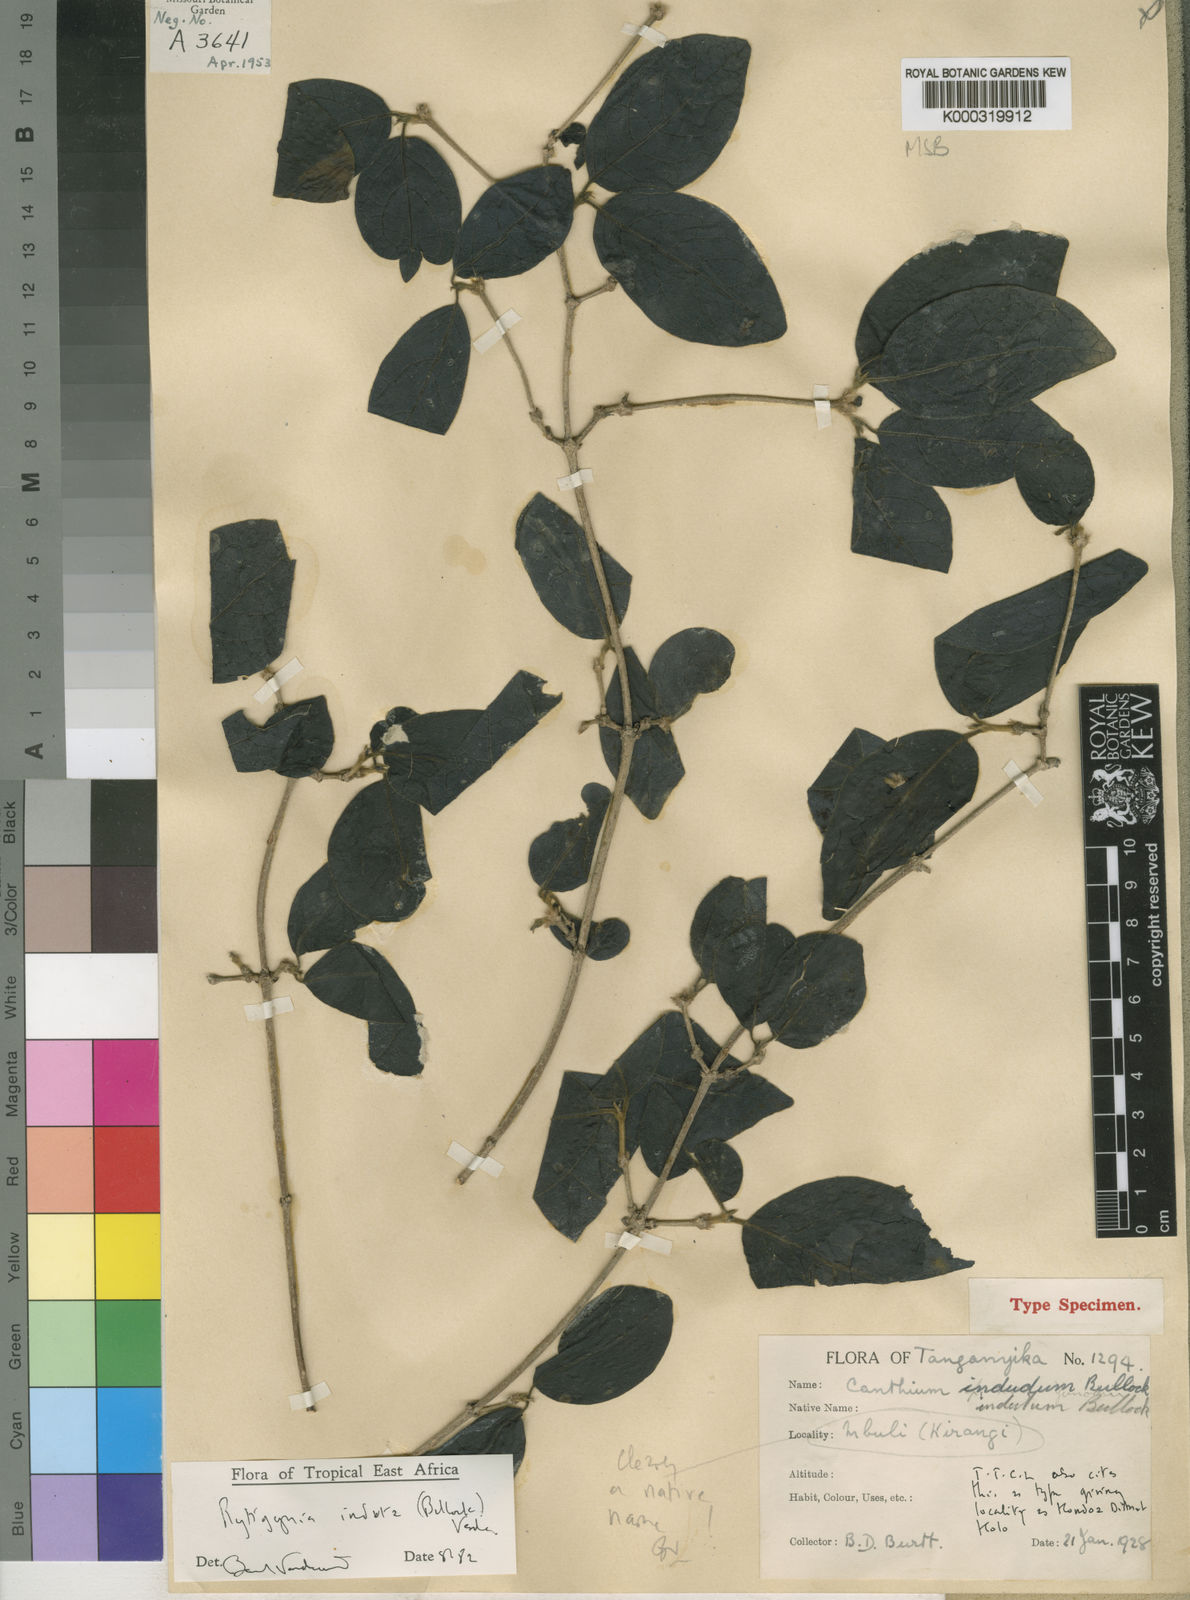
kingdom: Plantae
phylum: Tracheophyta
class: Magnoliopsida
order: Gentianales
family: Rubiaceae
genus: Vangueria
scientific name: Vangueria induta
